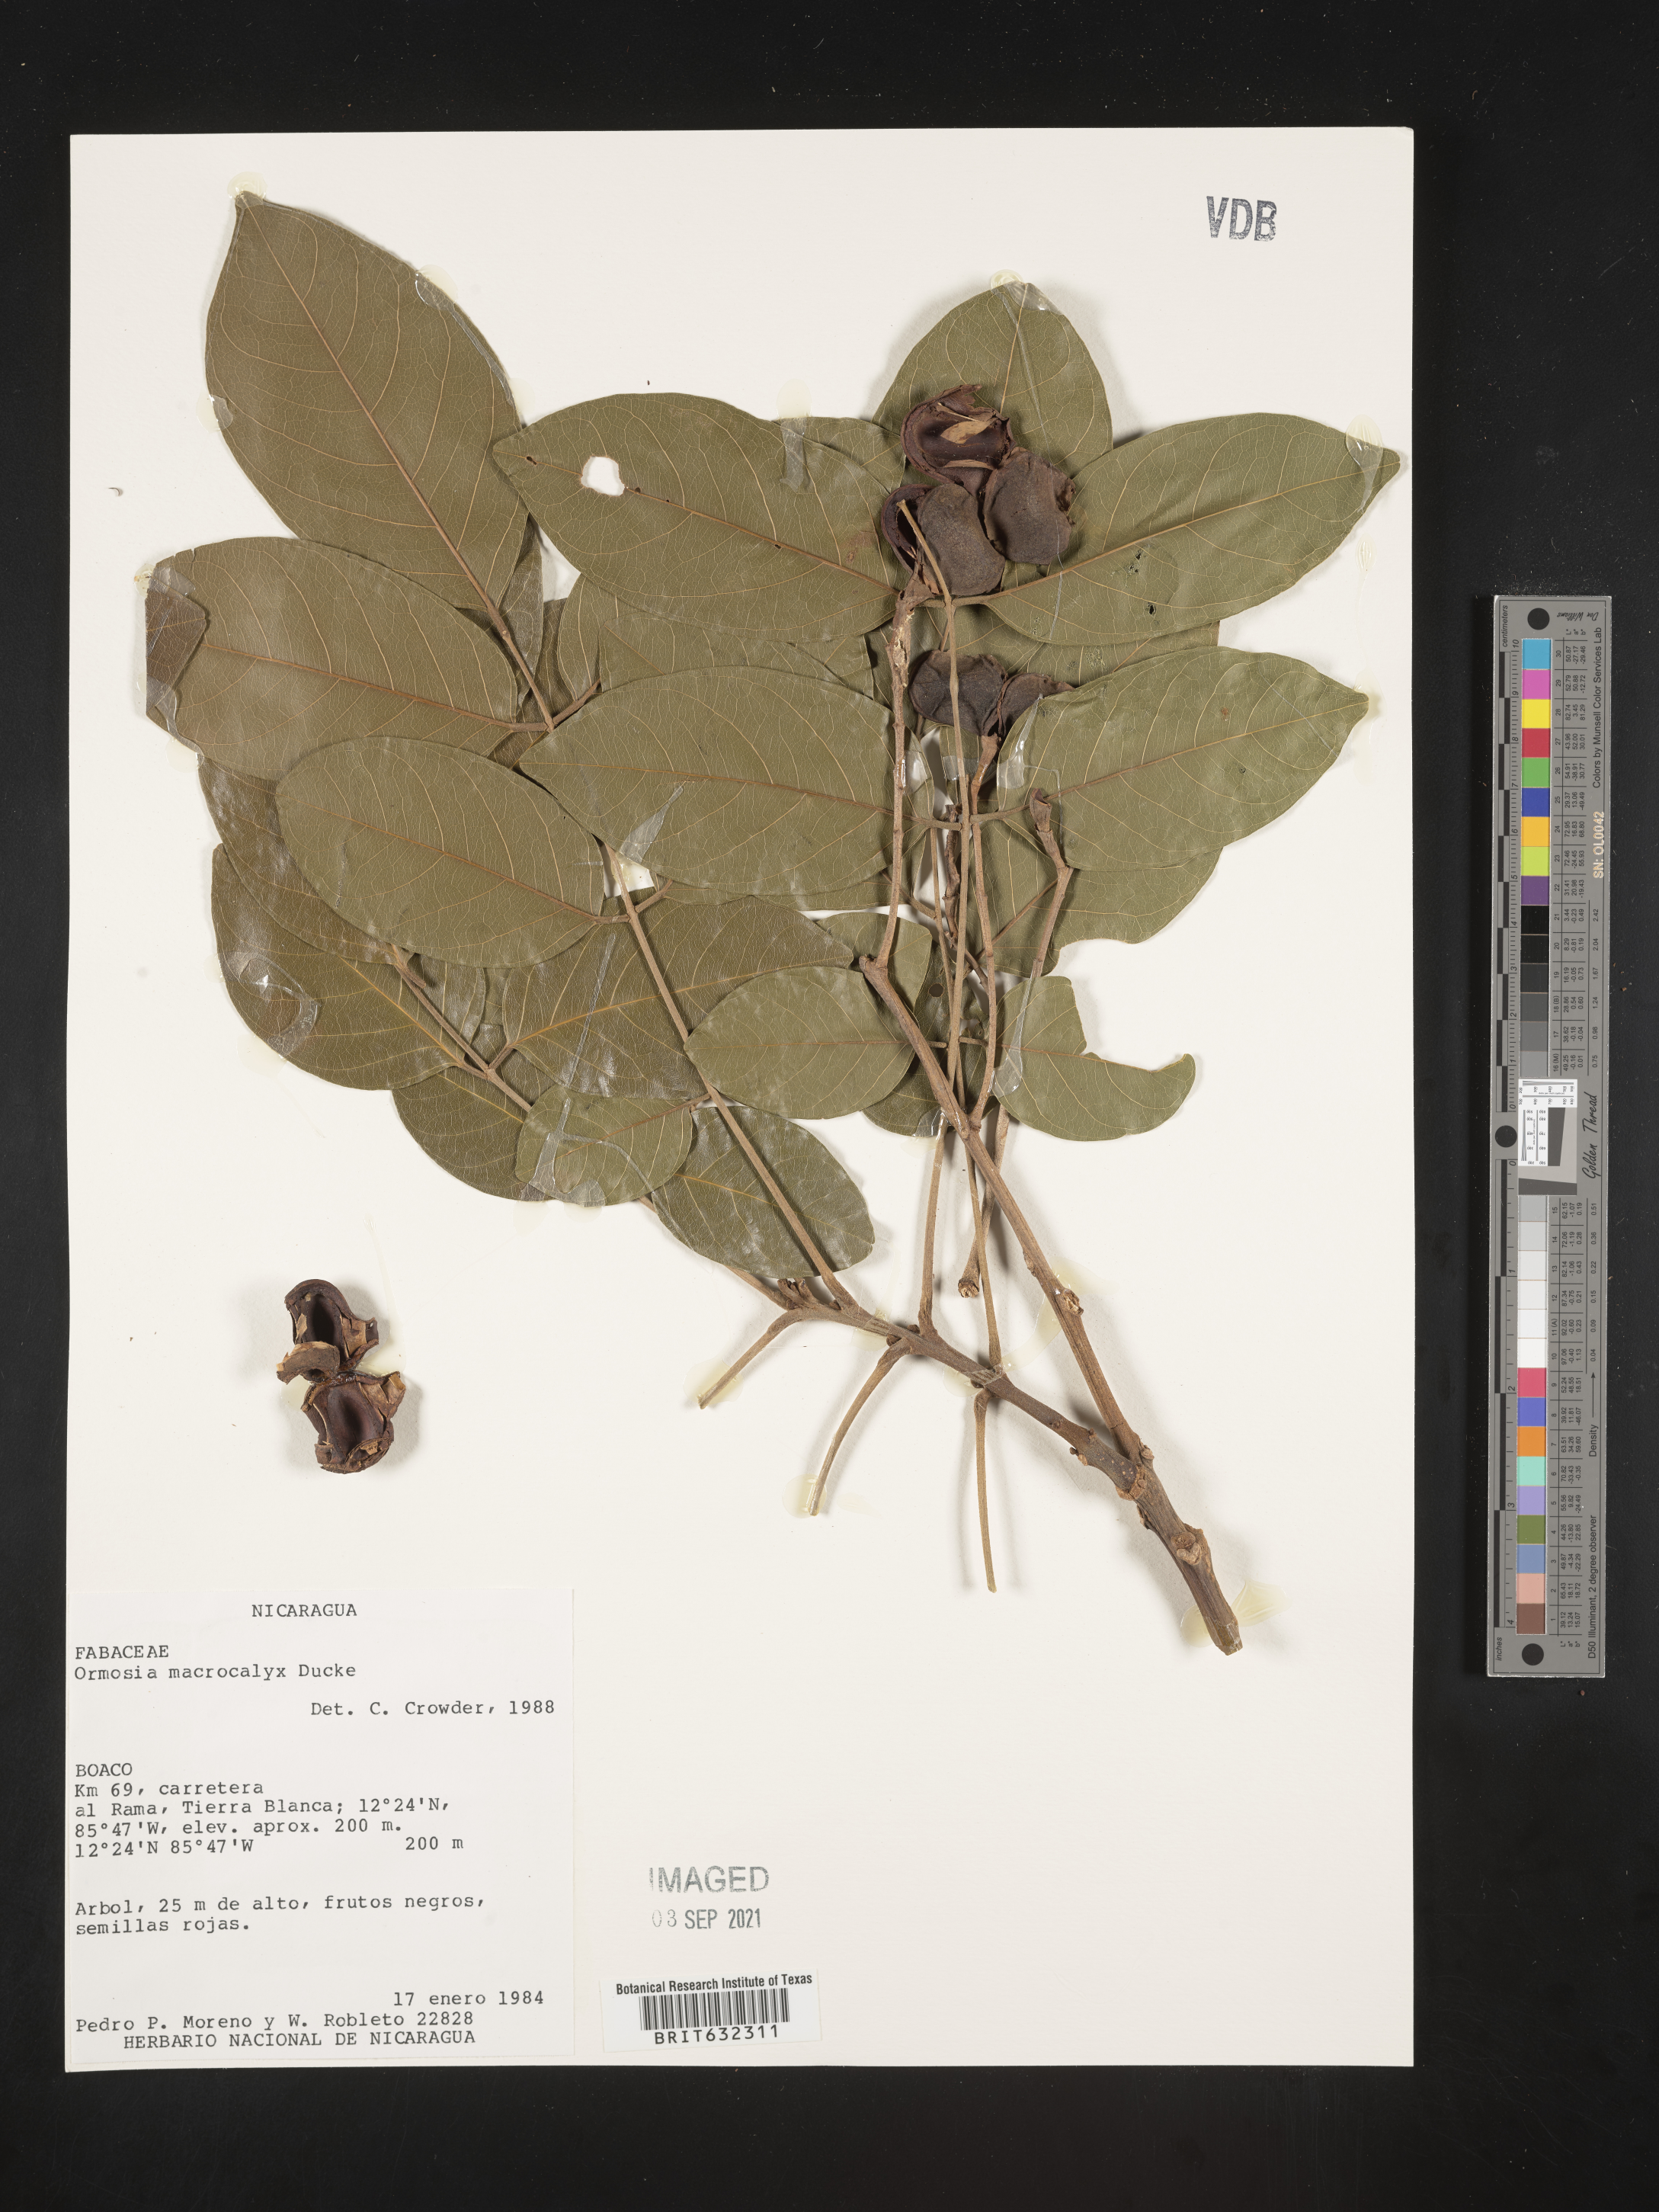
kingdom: Plantae
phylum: Tracheophyta
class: Magnoliopsida
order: Fabales
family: Fabaceae
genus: Ormosia
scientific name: Ormosia
